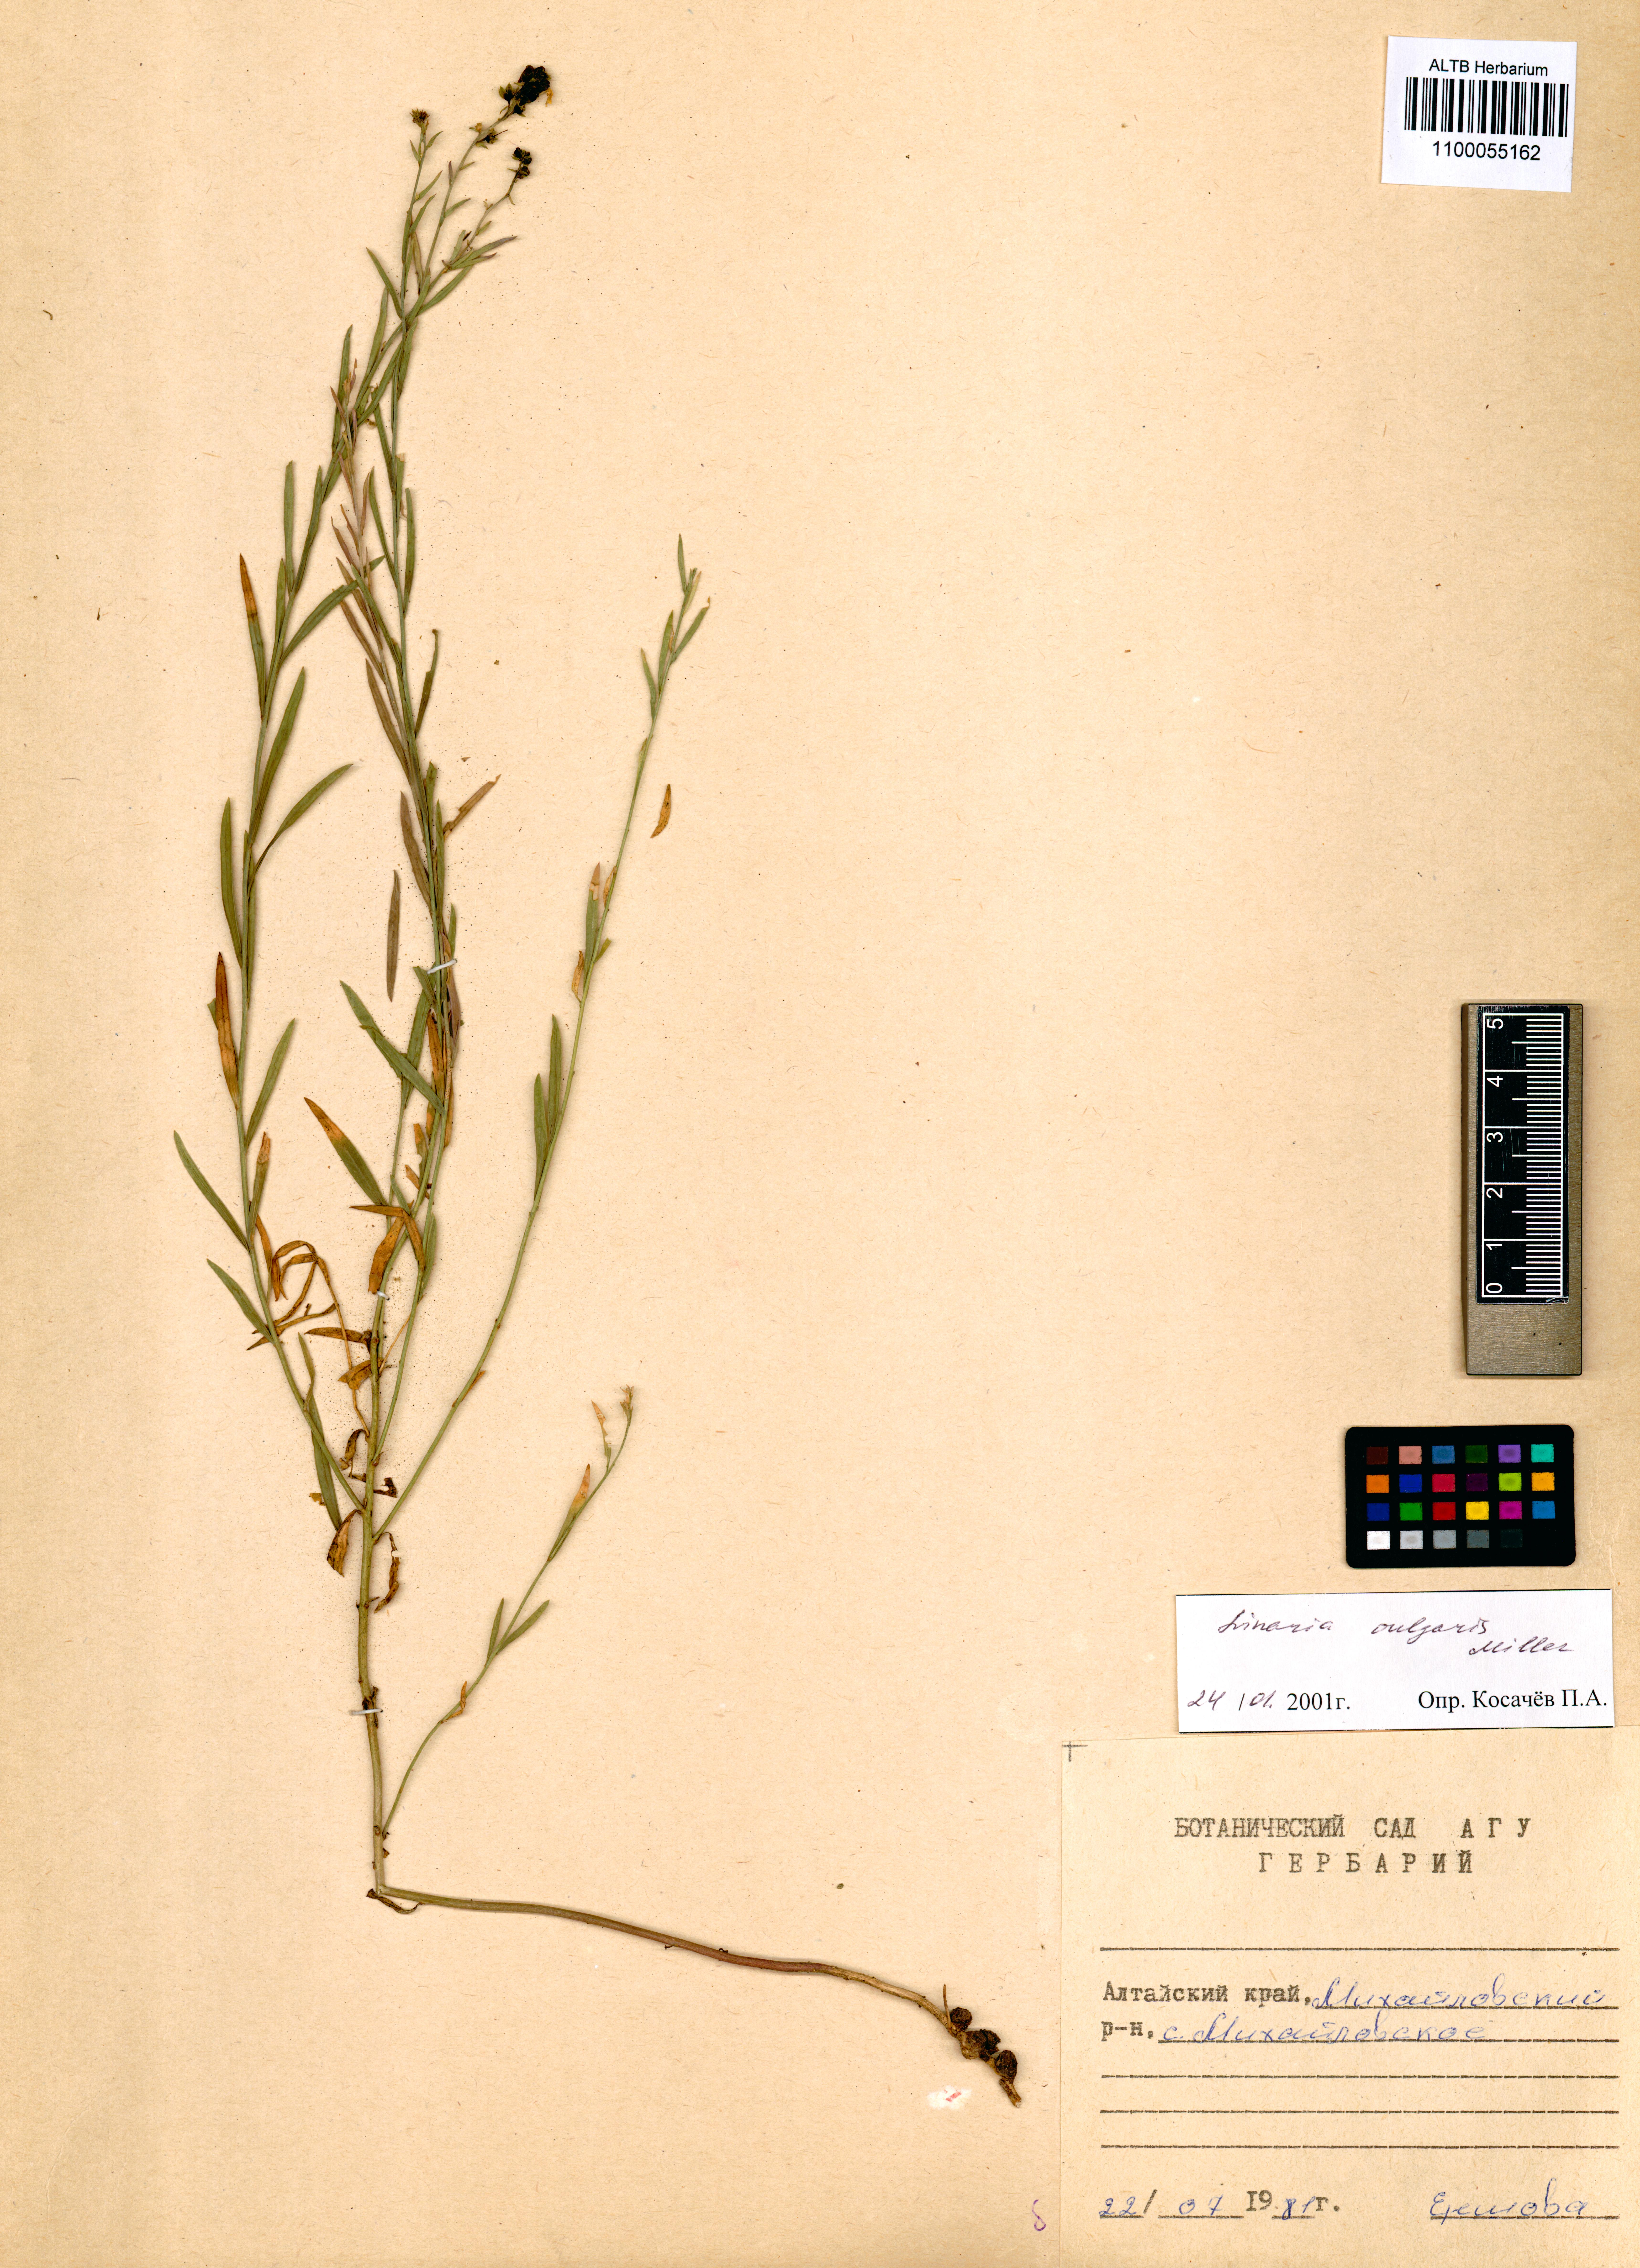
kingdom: Plantae
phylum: Tracheophyta
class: Magnoliopsida
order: Lamiales
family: Plantaginaceae
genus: Linaria
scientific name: Linaria vulgaris
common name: Butter and eggs
